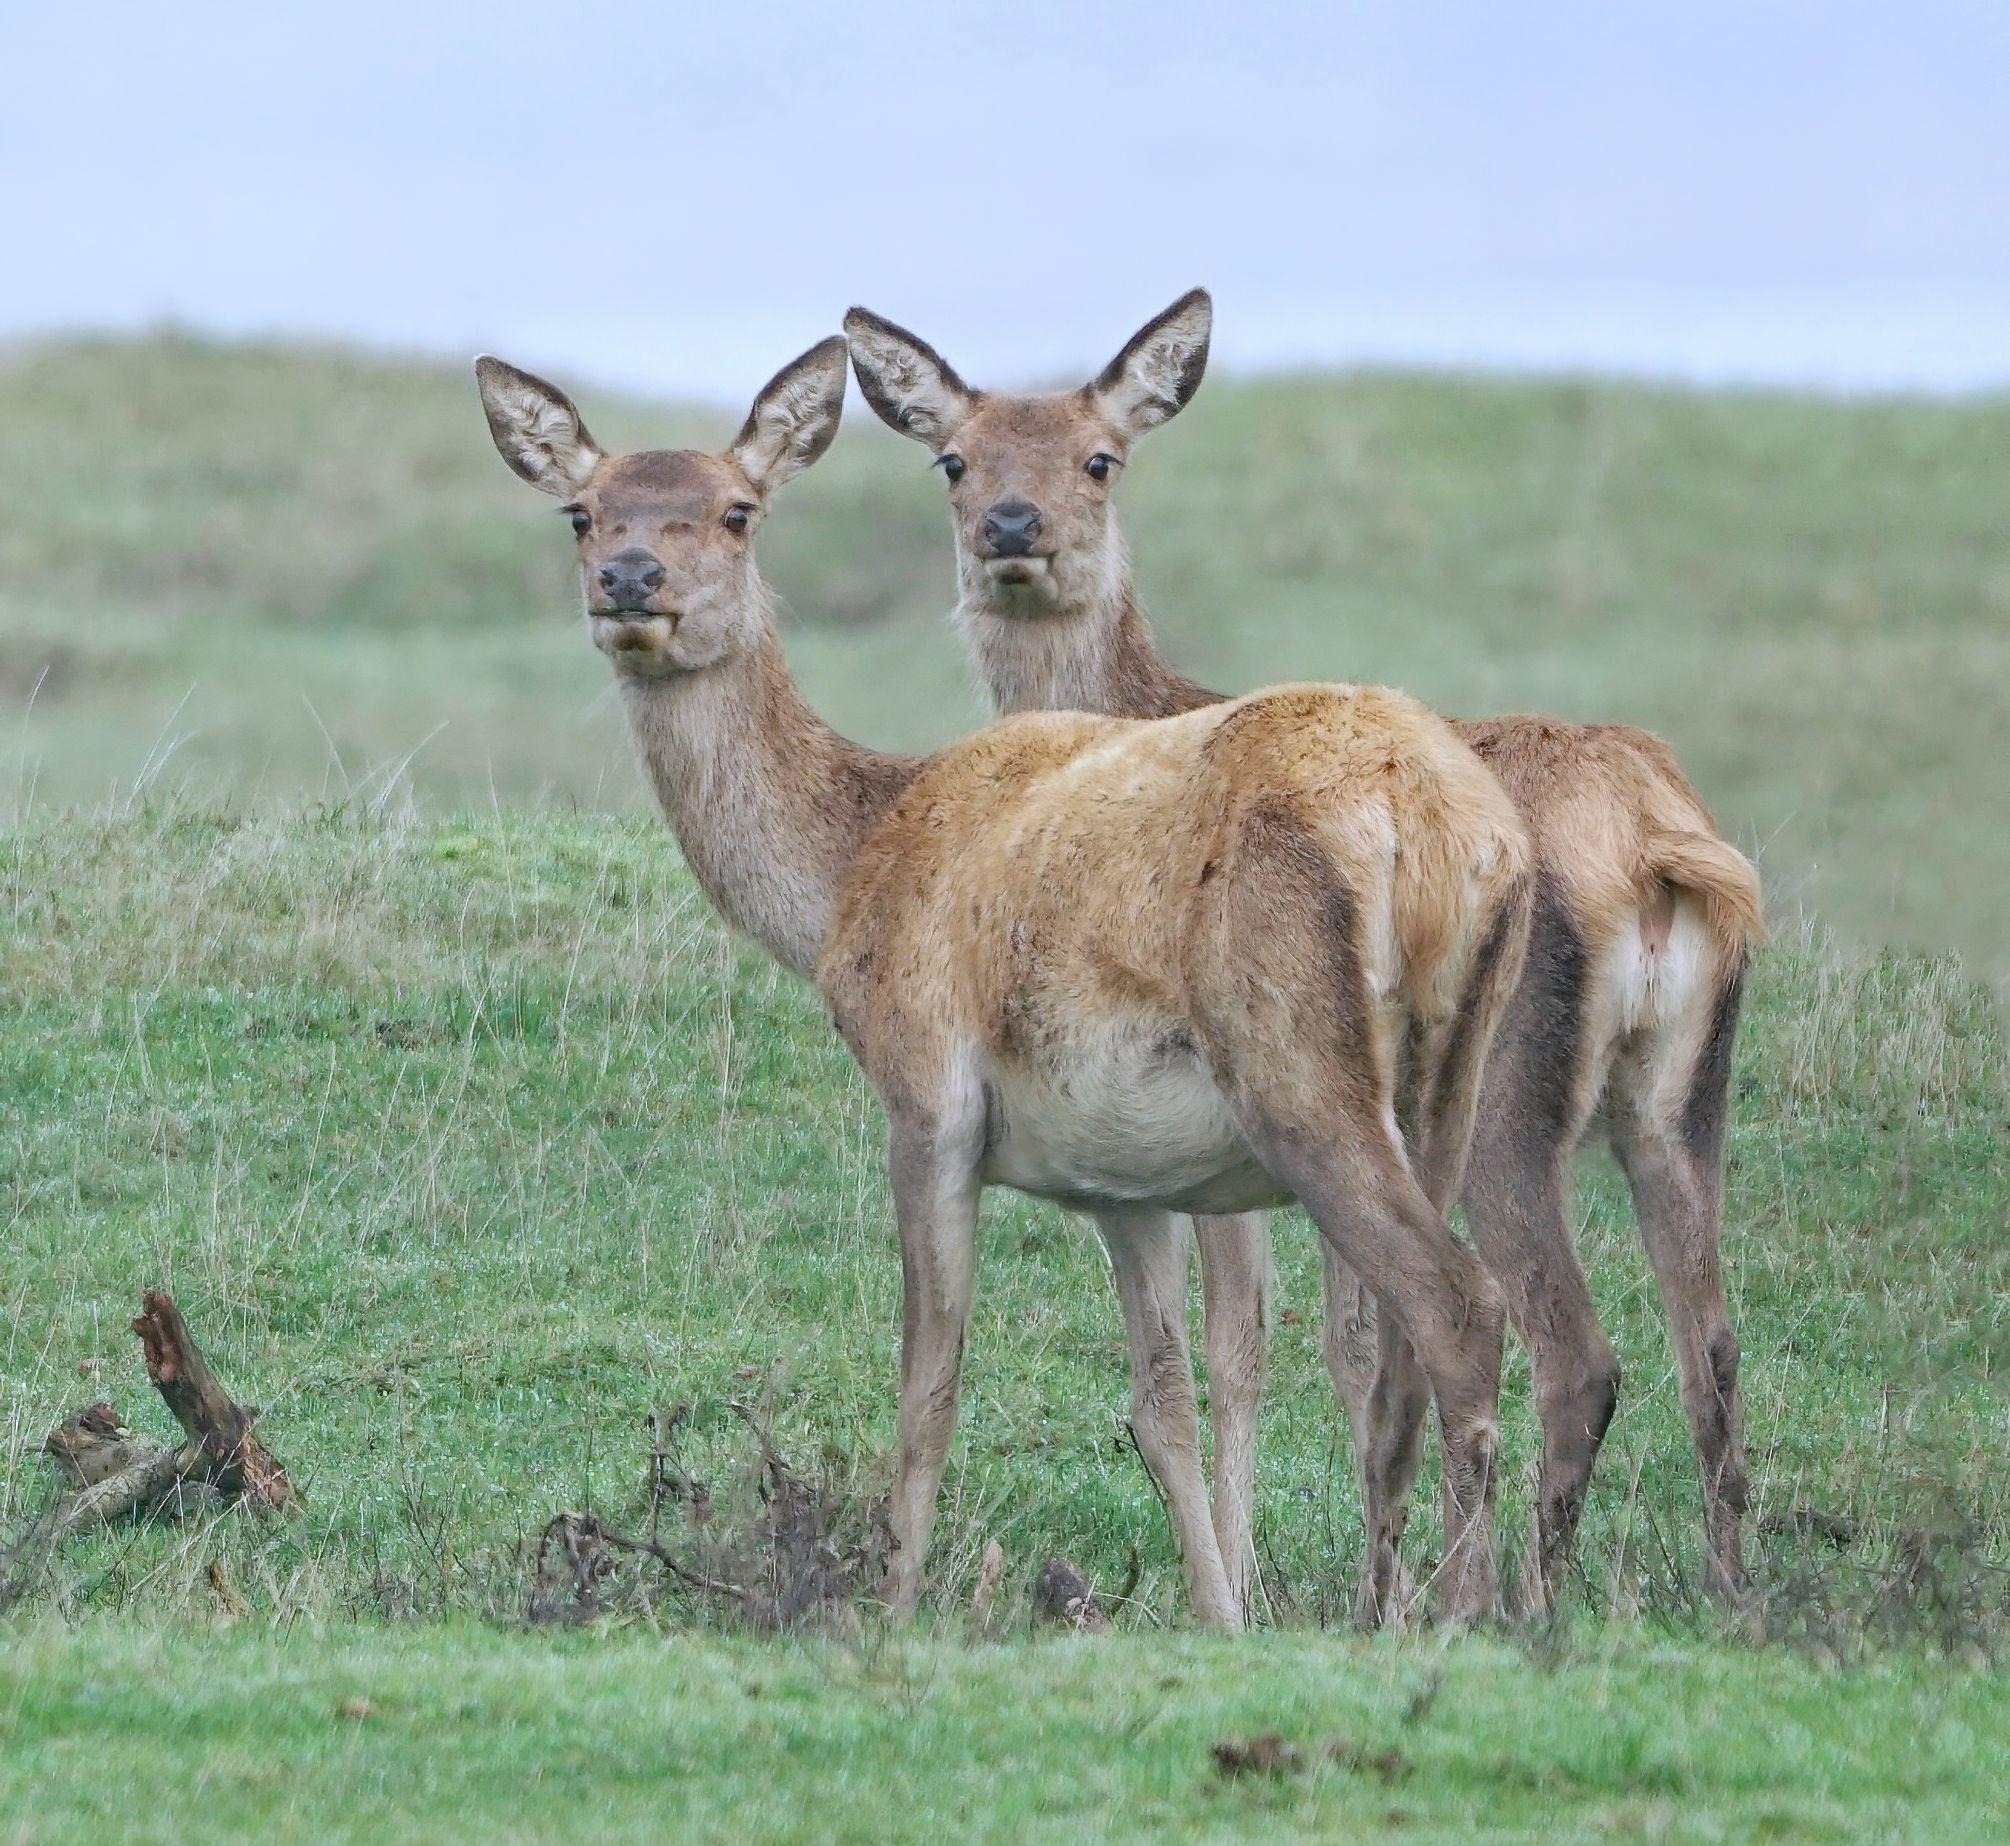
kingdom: Animalia
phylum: Chordata
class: Mammalia
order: Artiodactyla
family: Cervidae
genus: Cervus
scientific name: Cervus elaphus
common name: Krondyr
